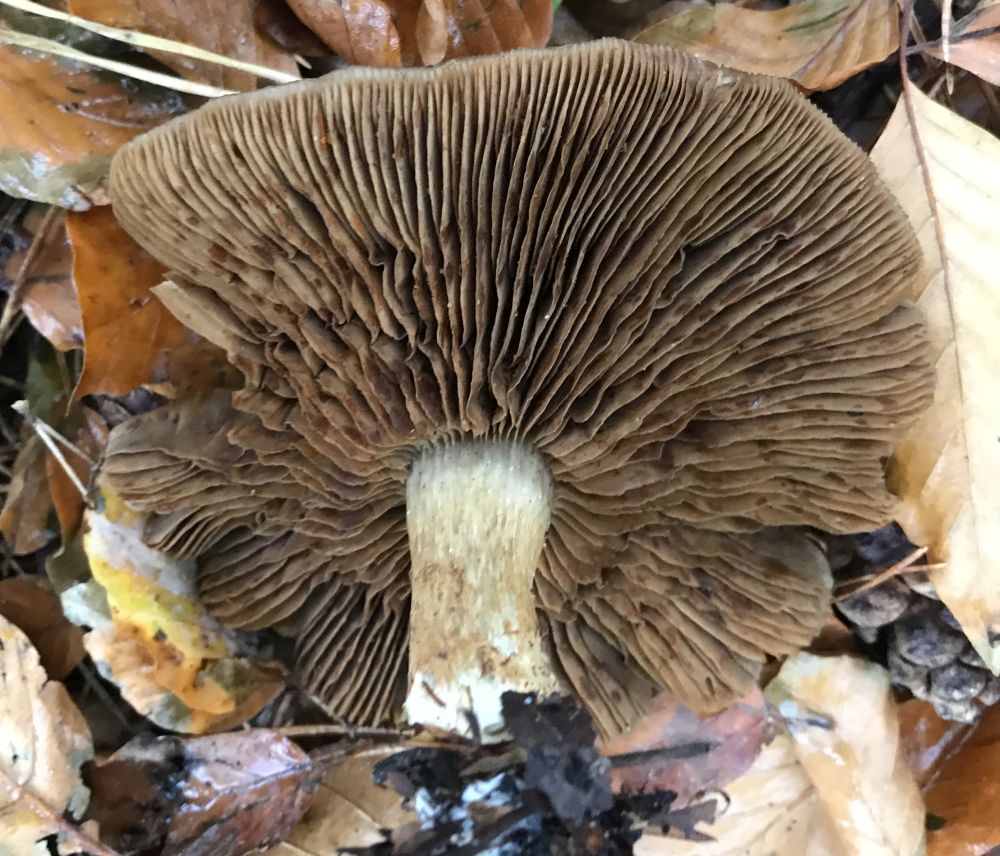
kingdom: Fungi
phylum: Basidiomycota
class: Agaricomycetes
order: Agaricales
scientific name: Agaricales
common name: champignonordenen
